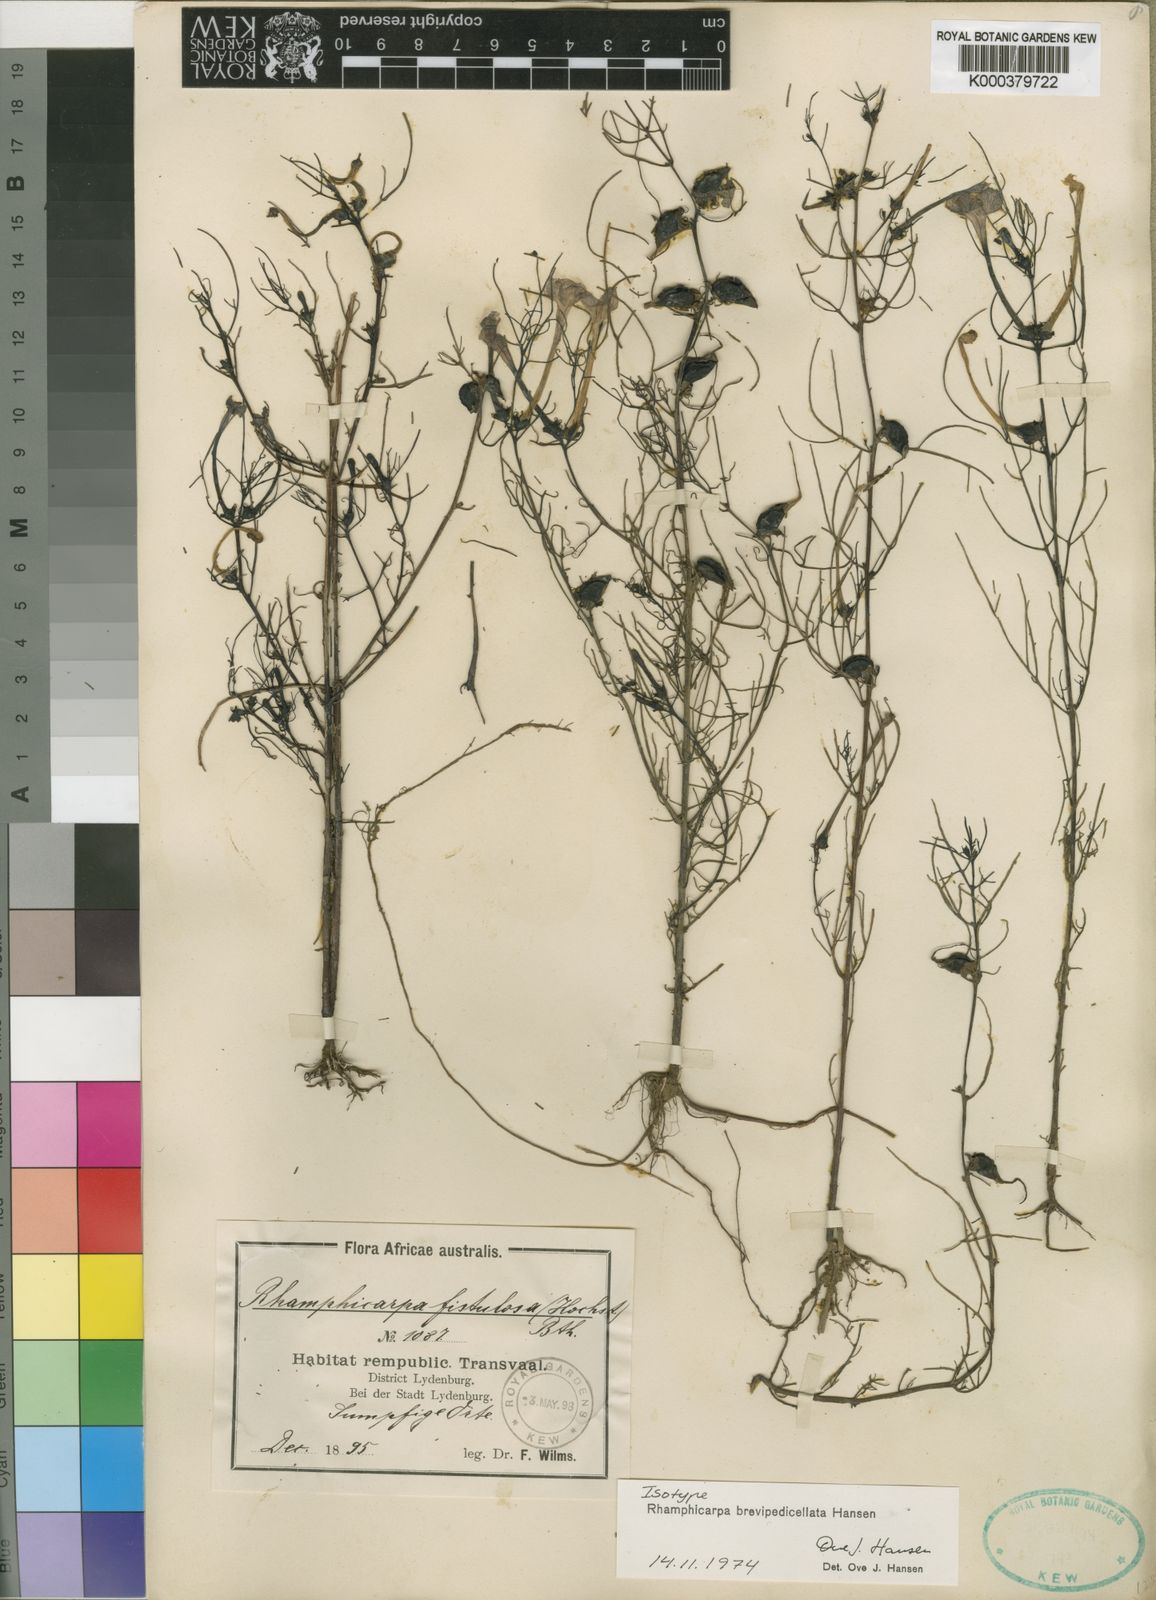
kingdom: Plantae
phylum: Tracheophyta
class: Magnoliopsida
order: Lamiales
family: Orobanchaceae
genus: Rhamphicarpa
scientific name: Rhamphicarpa brevipedicellata
